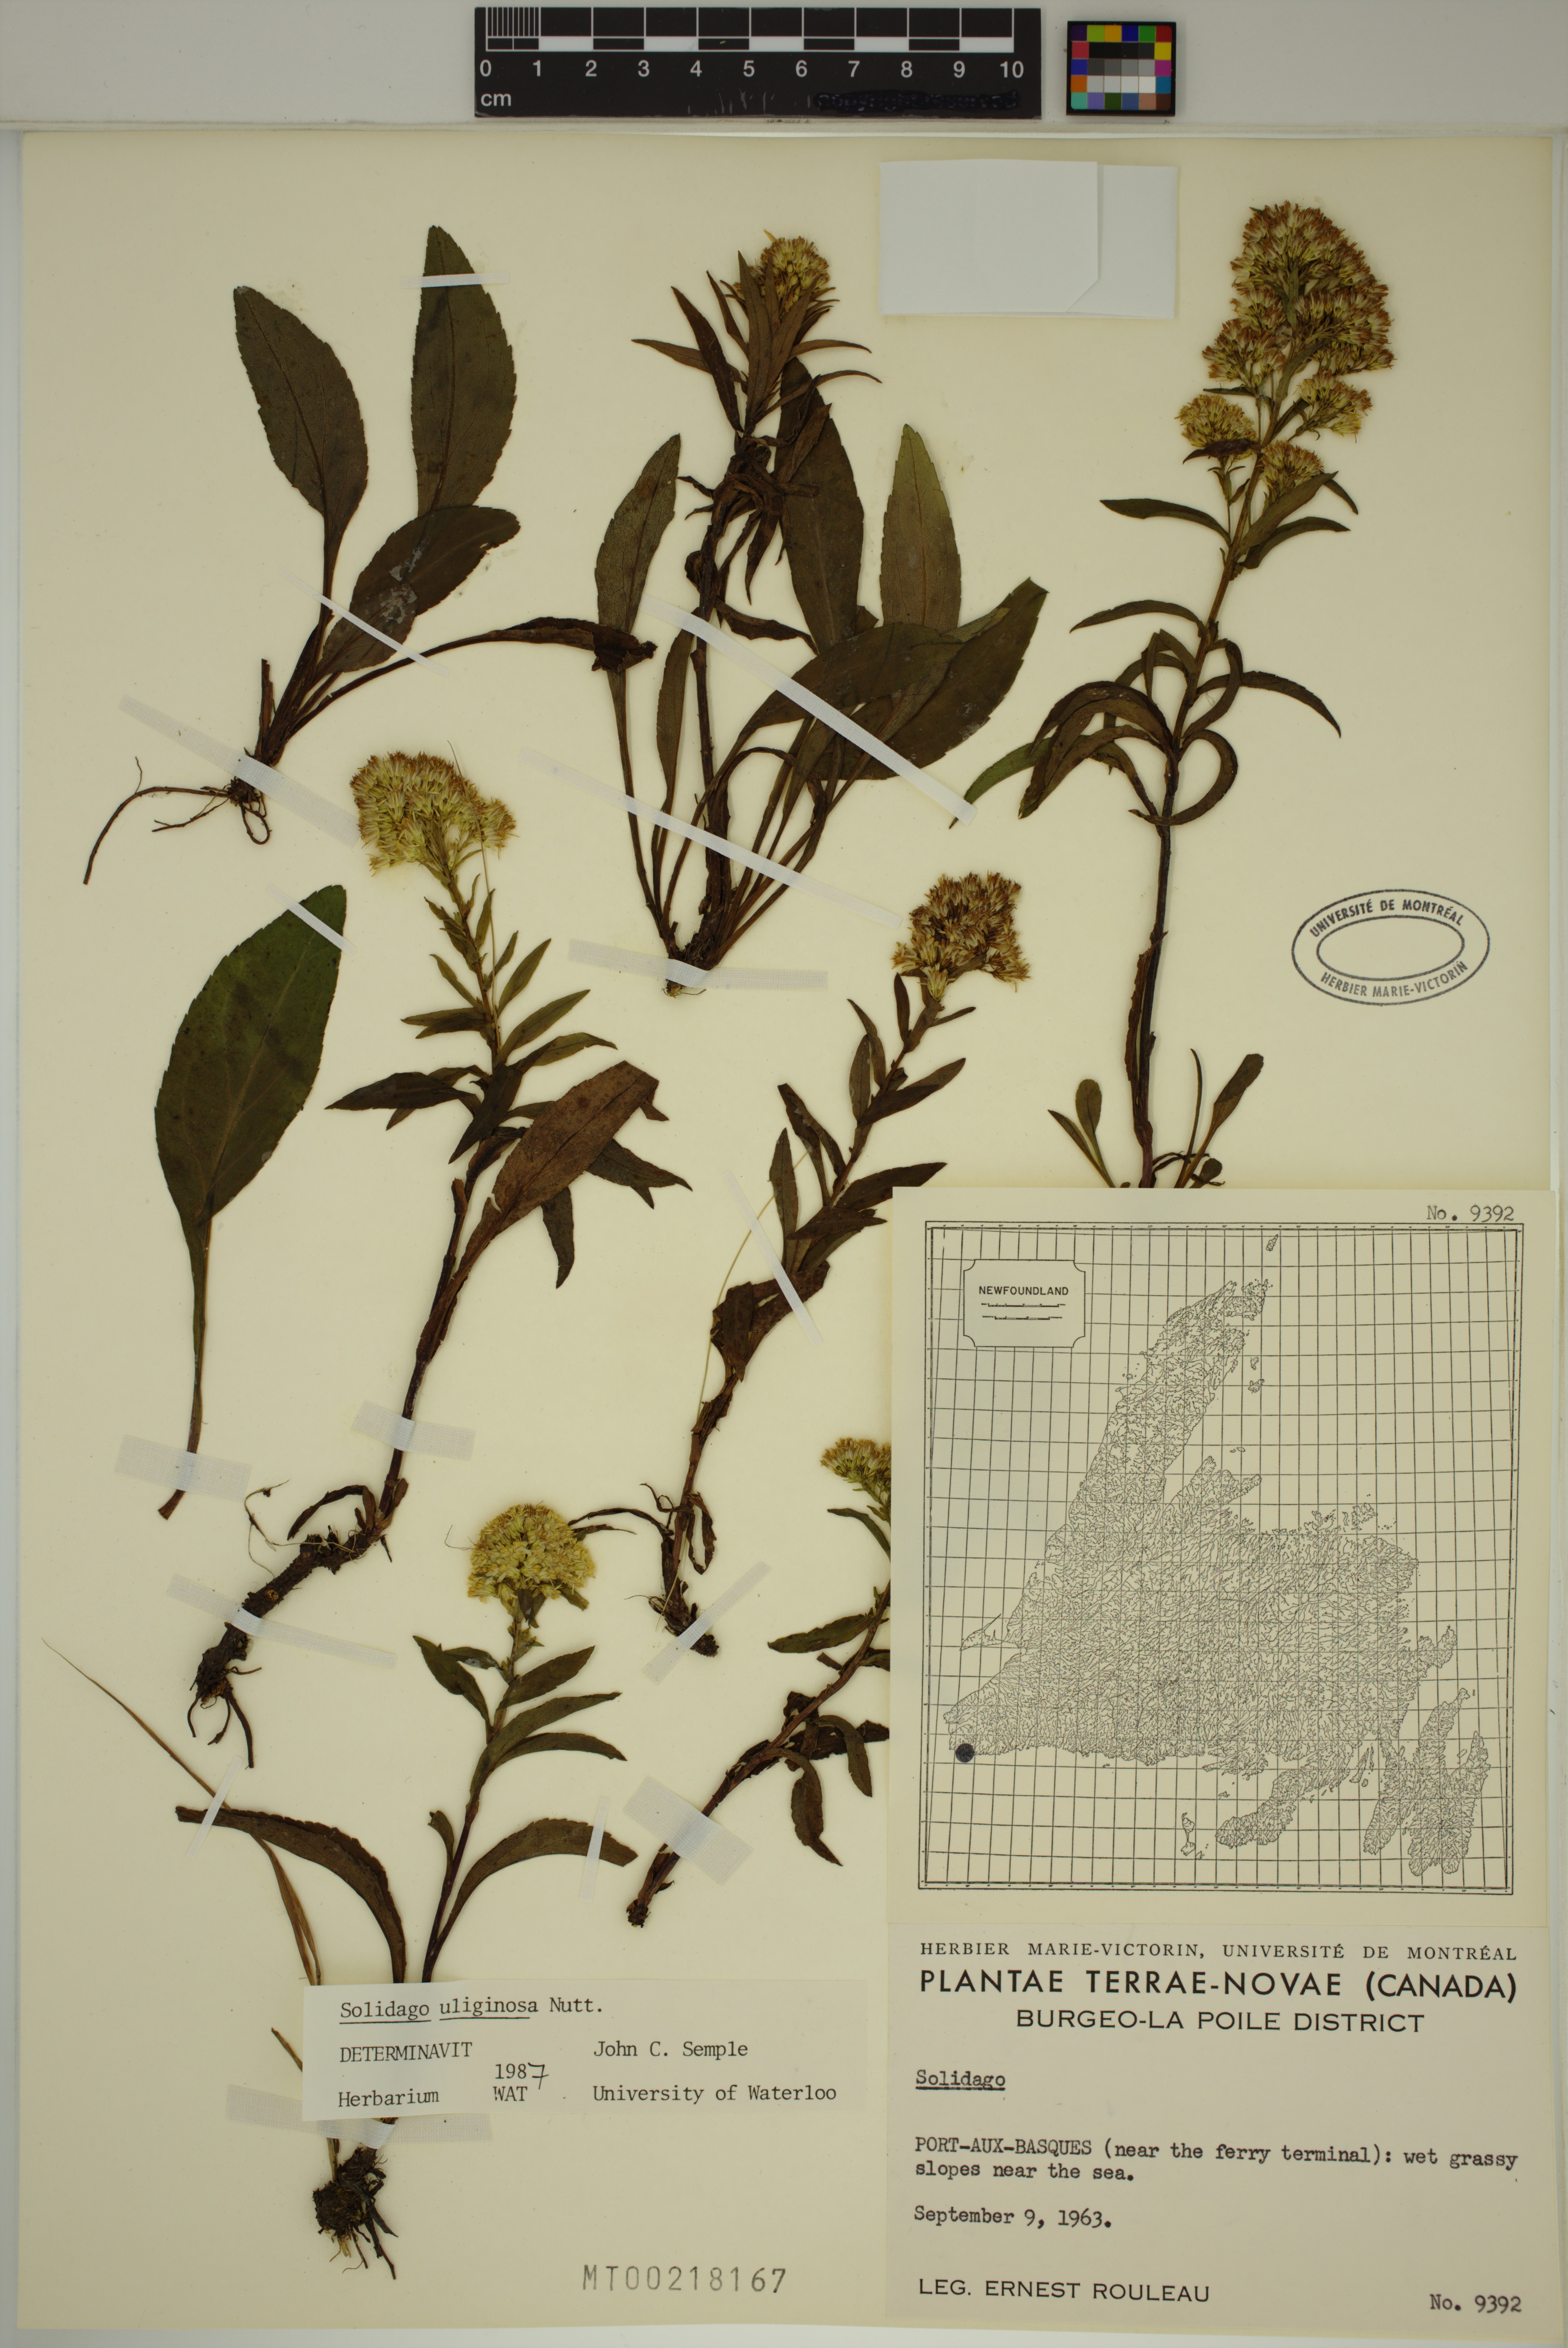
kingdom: Plantae
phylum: Tracheophyta
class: Magnoliopsida
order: Asterales
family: Asteraceae
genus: Solidago
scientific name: Solidago uliginosa
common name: Bog goldenrod
